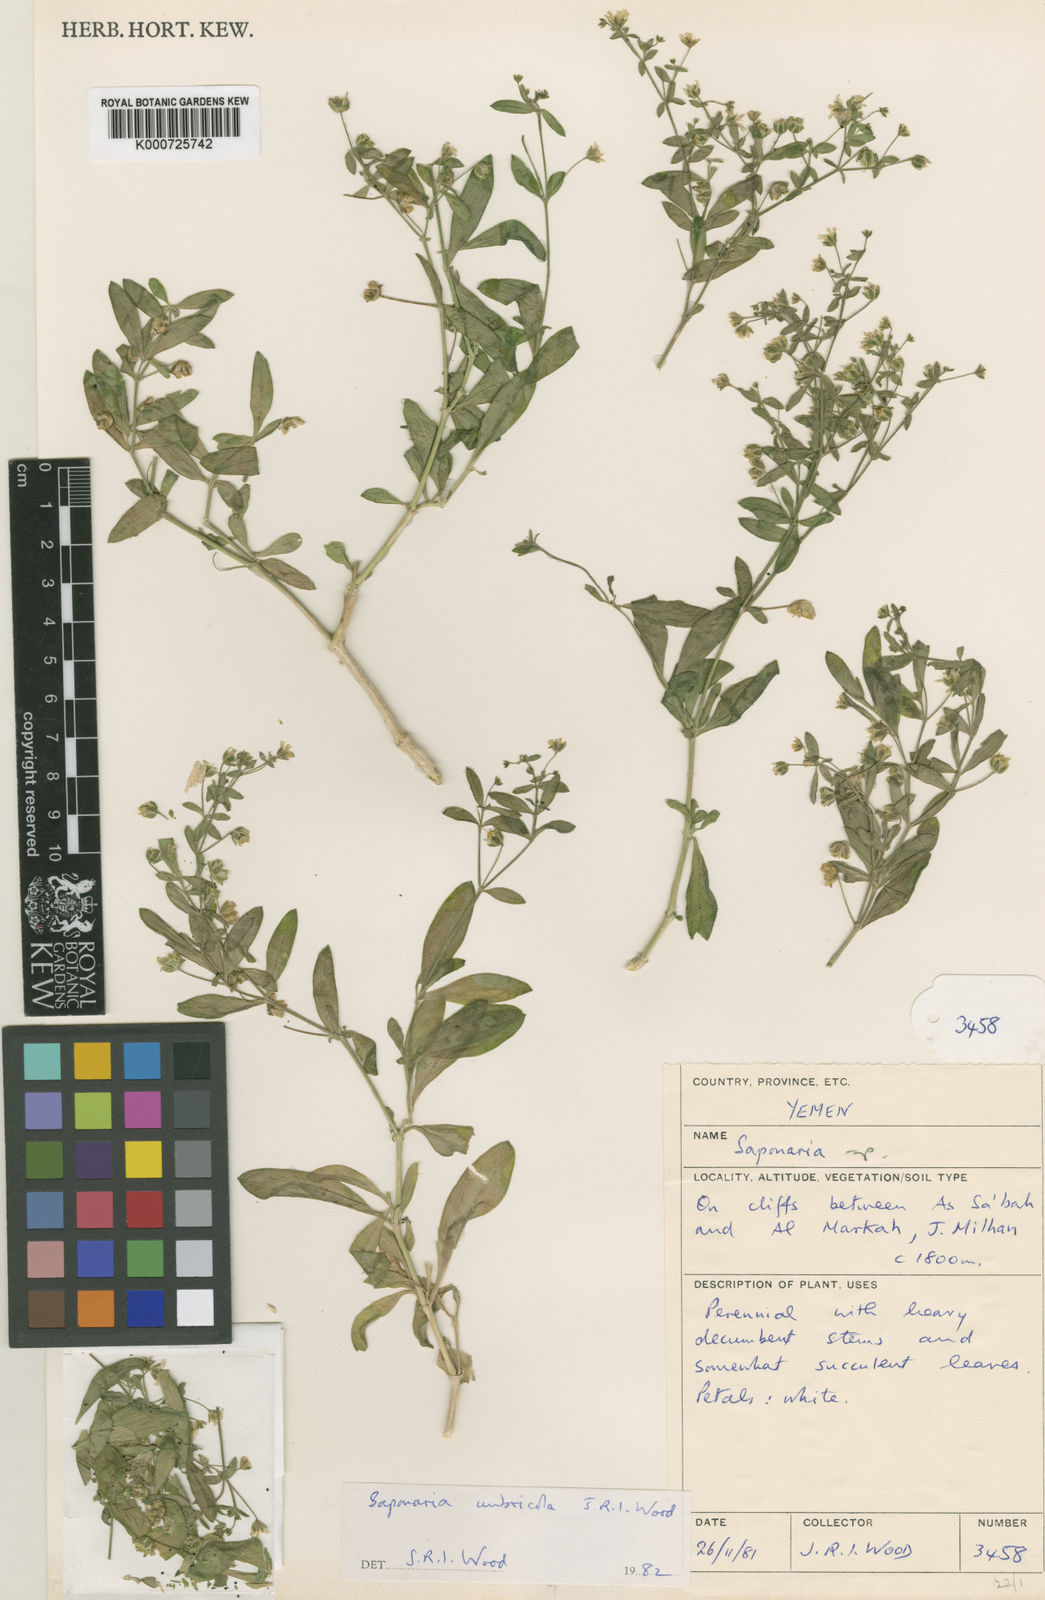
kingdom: Plantae
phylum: Tracheophyta
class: Magnoliopsida
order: Caryophyllales
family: Caryophyllaceae
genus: Gypsophila
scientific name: Gypsophila umbricola
